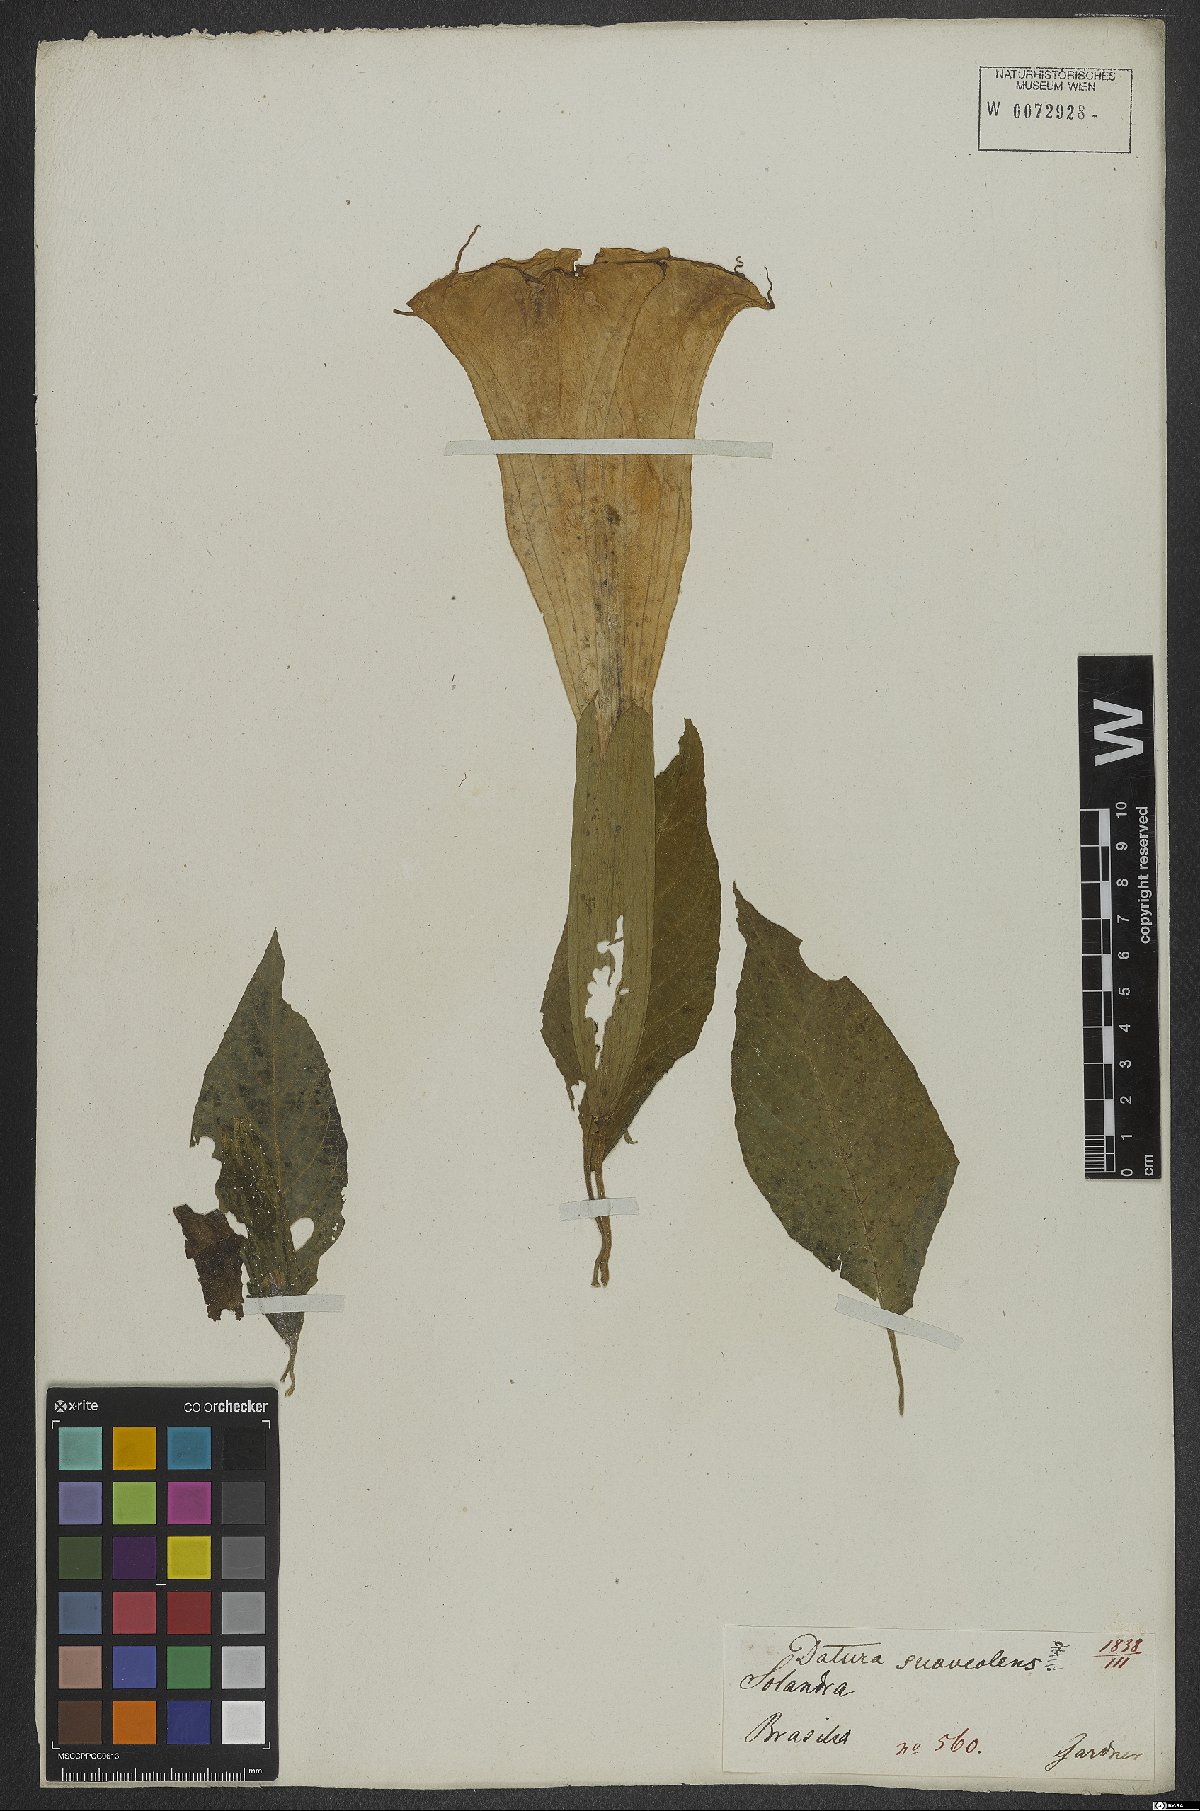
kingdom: Plantae
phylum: Tracheophyta
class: Magnoliopsida
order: Solanales
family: Solanaceae
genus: Brugmansia
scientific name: Brugmansia suaveolens
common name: Angel's tears
